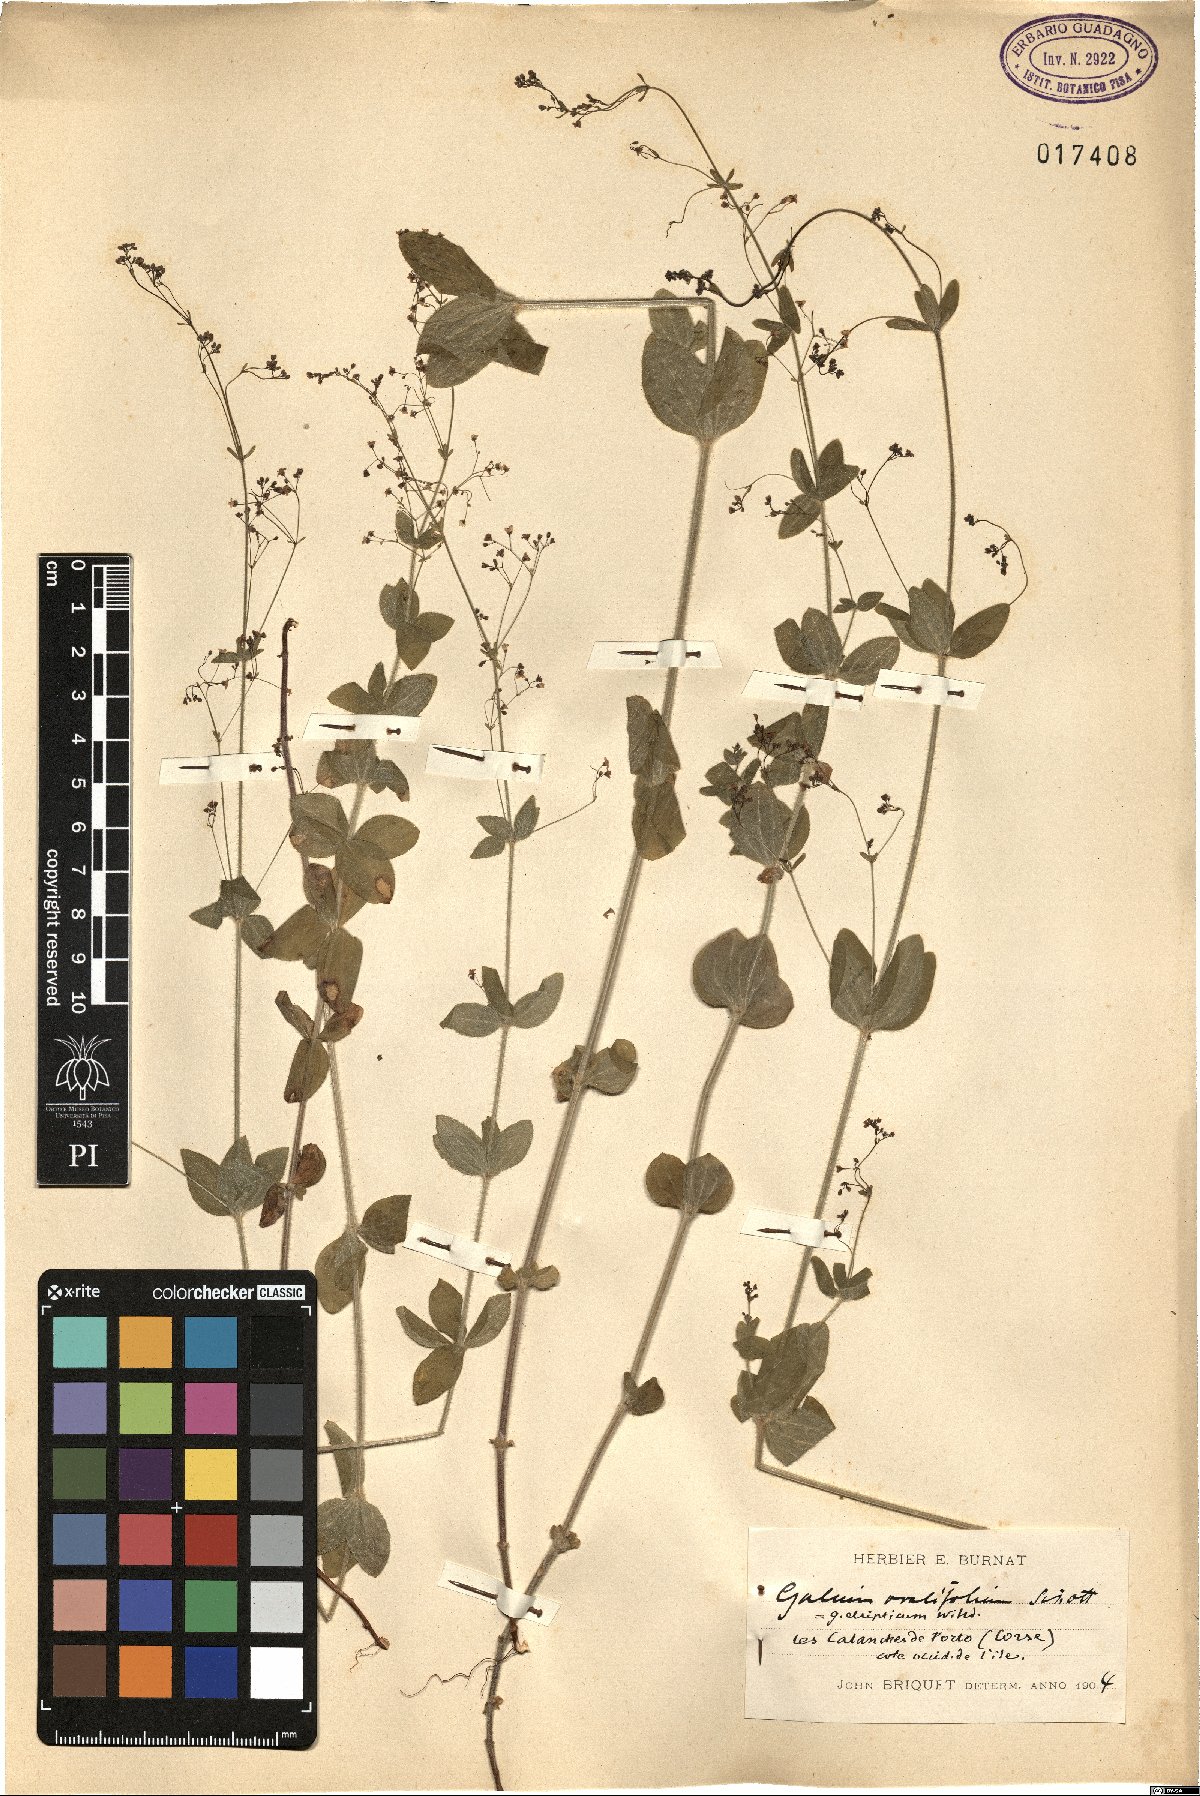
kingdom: Plantae
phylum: Tracheophyta
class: Magnoliopsida
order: Gentianales
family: Rubiaceae
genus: Galium
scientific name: Galium scabrum
